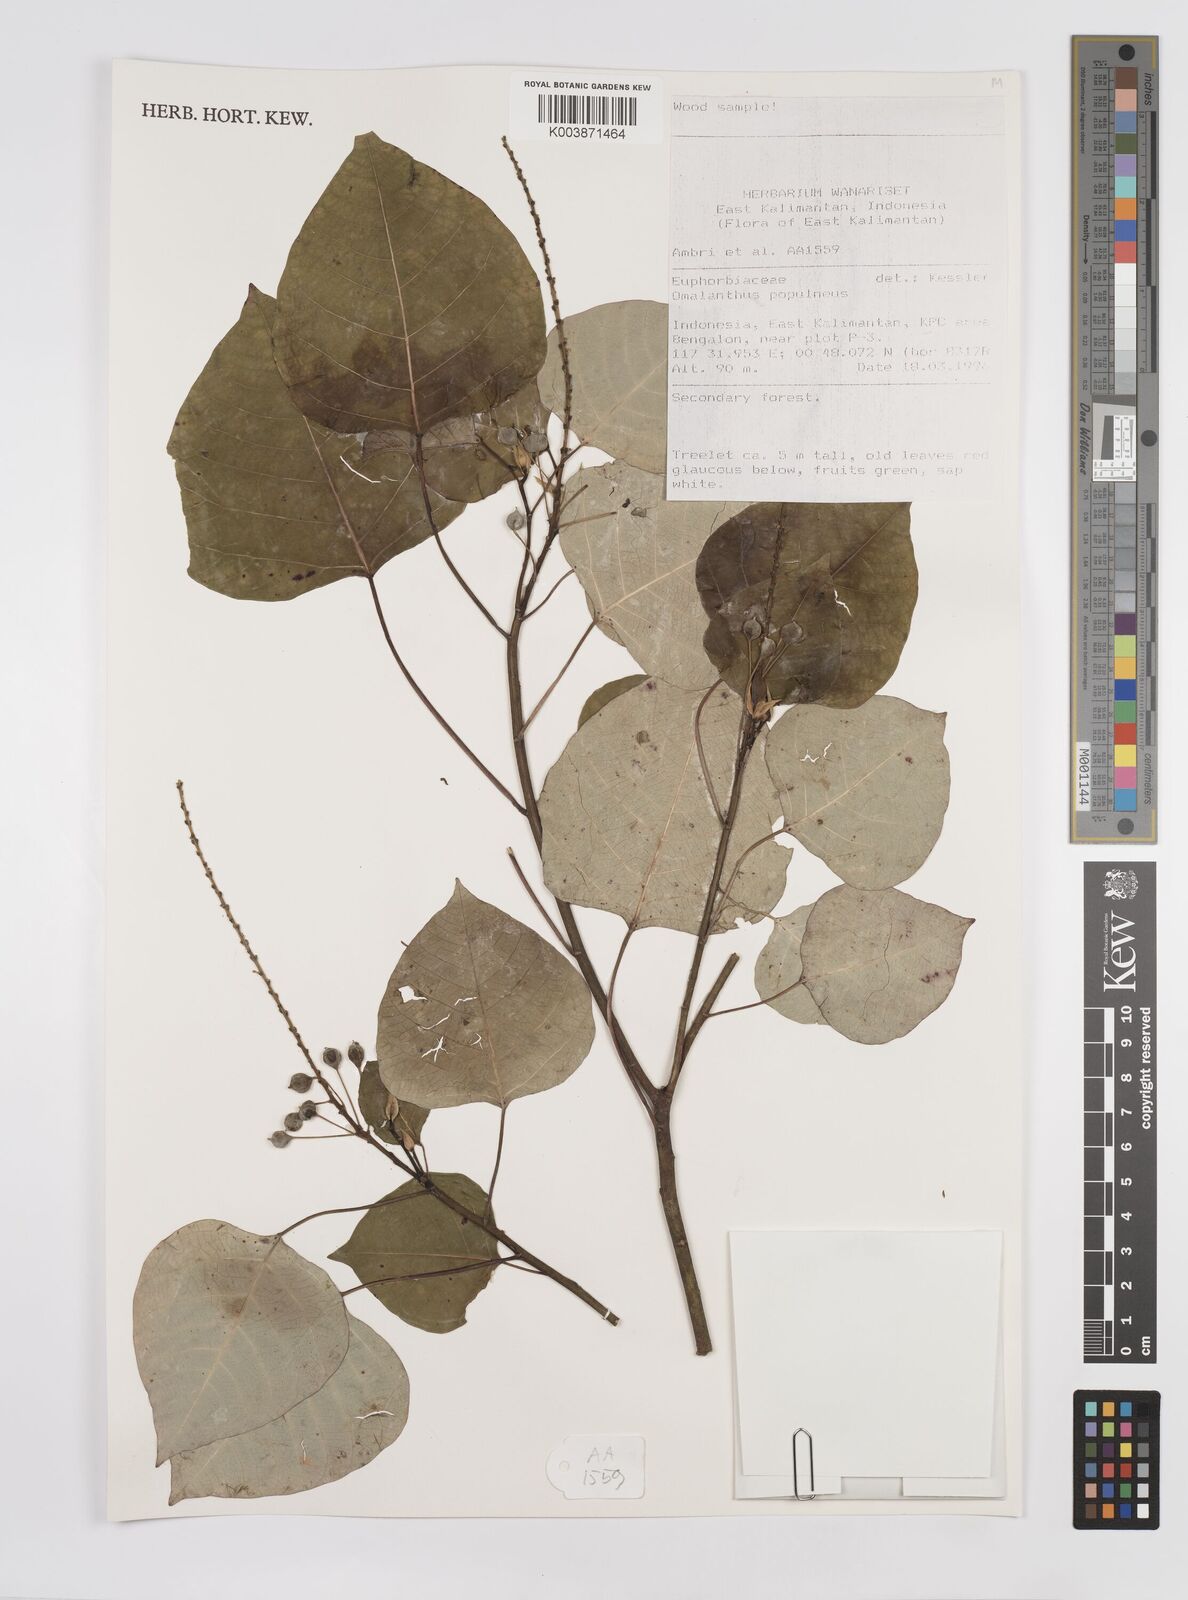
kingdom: Plantae
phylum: Tracheophyta
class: Magnoliopsida
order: Malpighiales
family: Euphorbiaceae
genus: Homalanthus
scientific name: Homalanthus populneus
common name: Spurge
